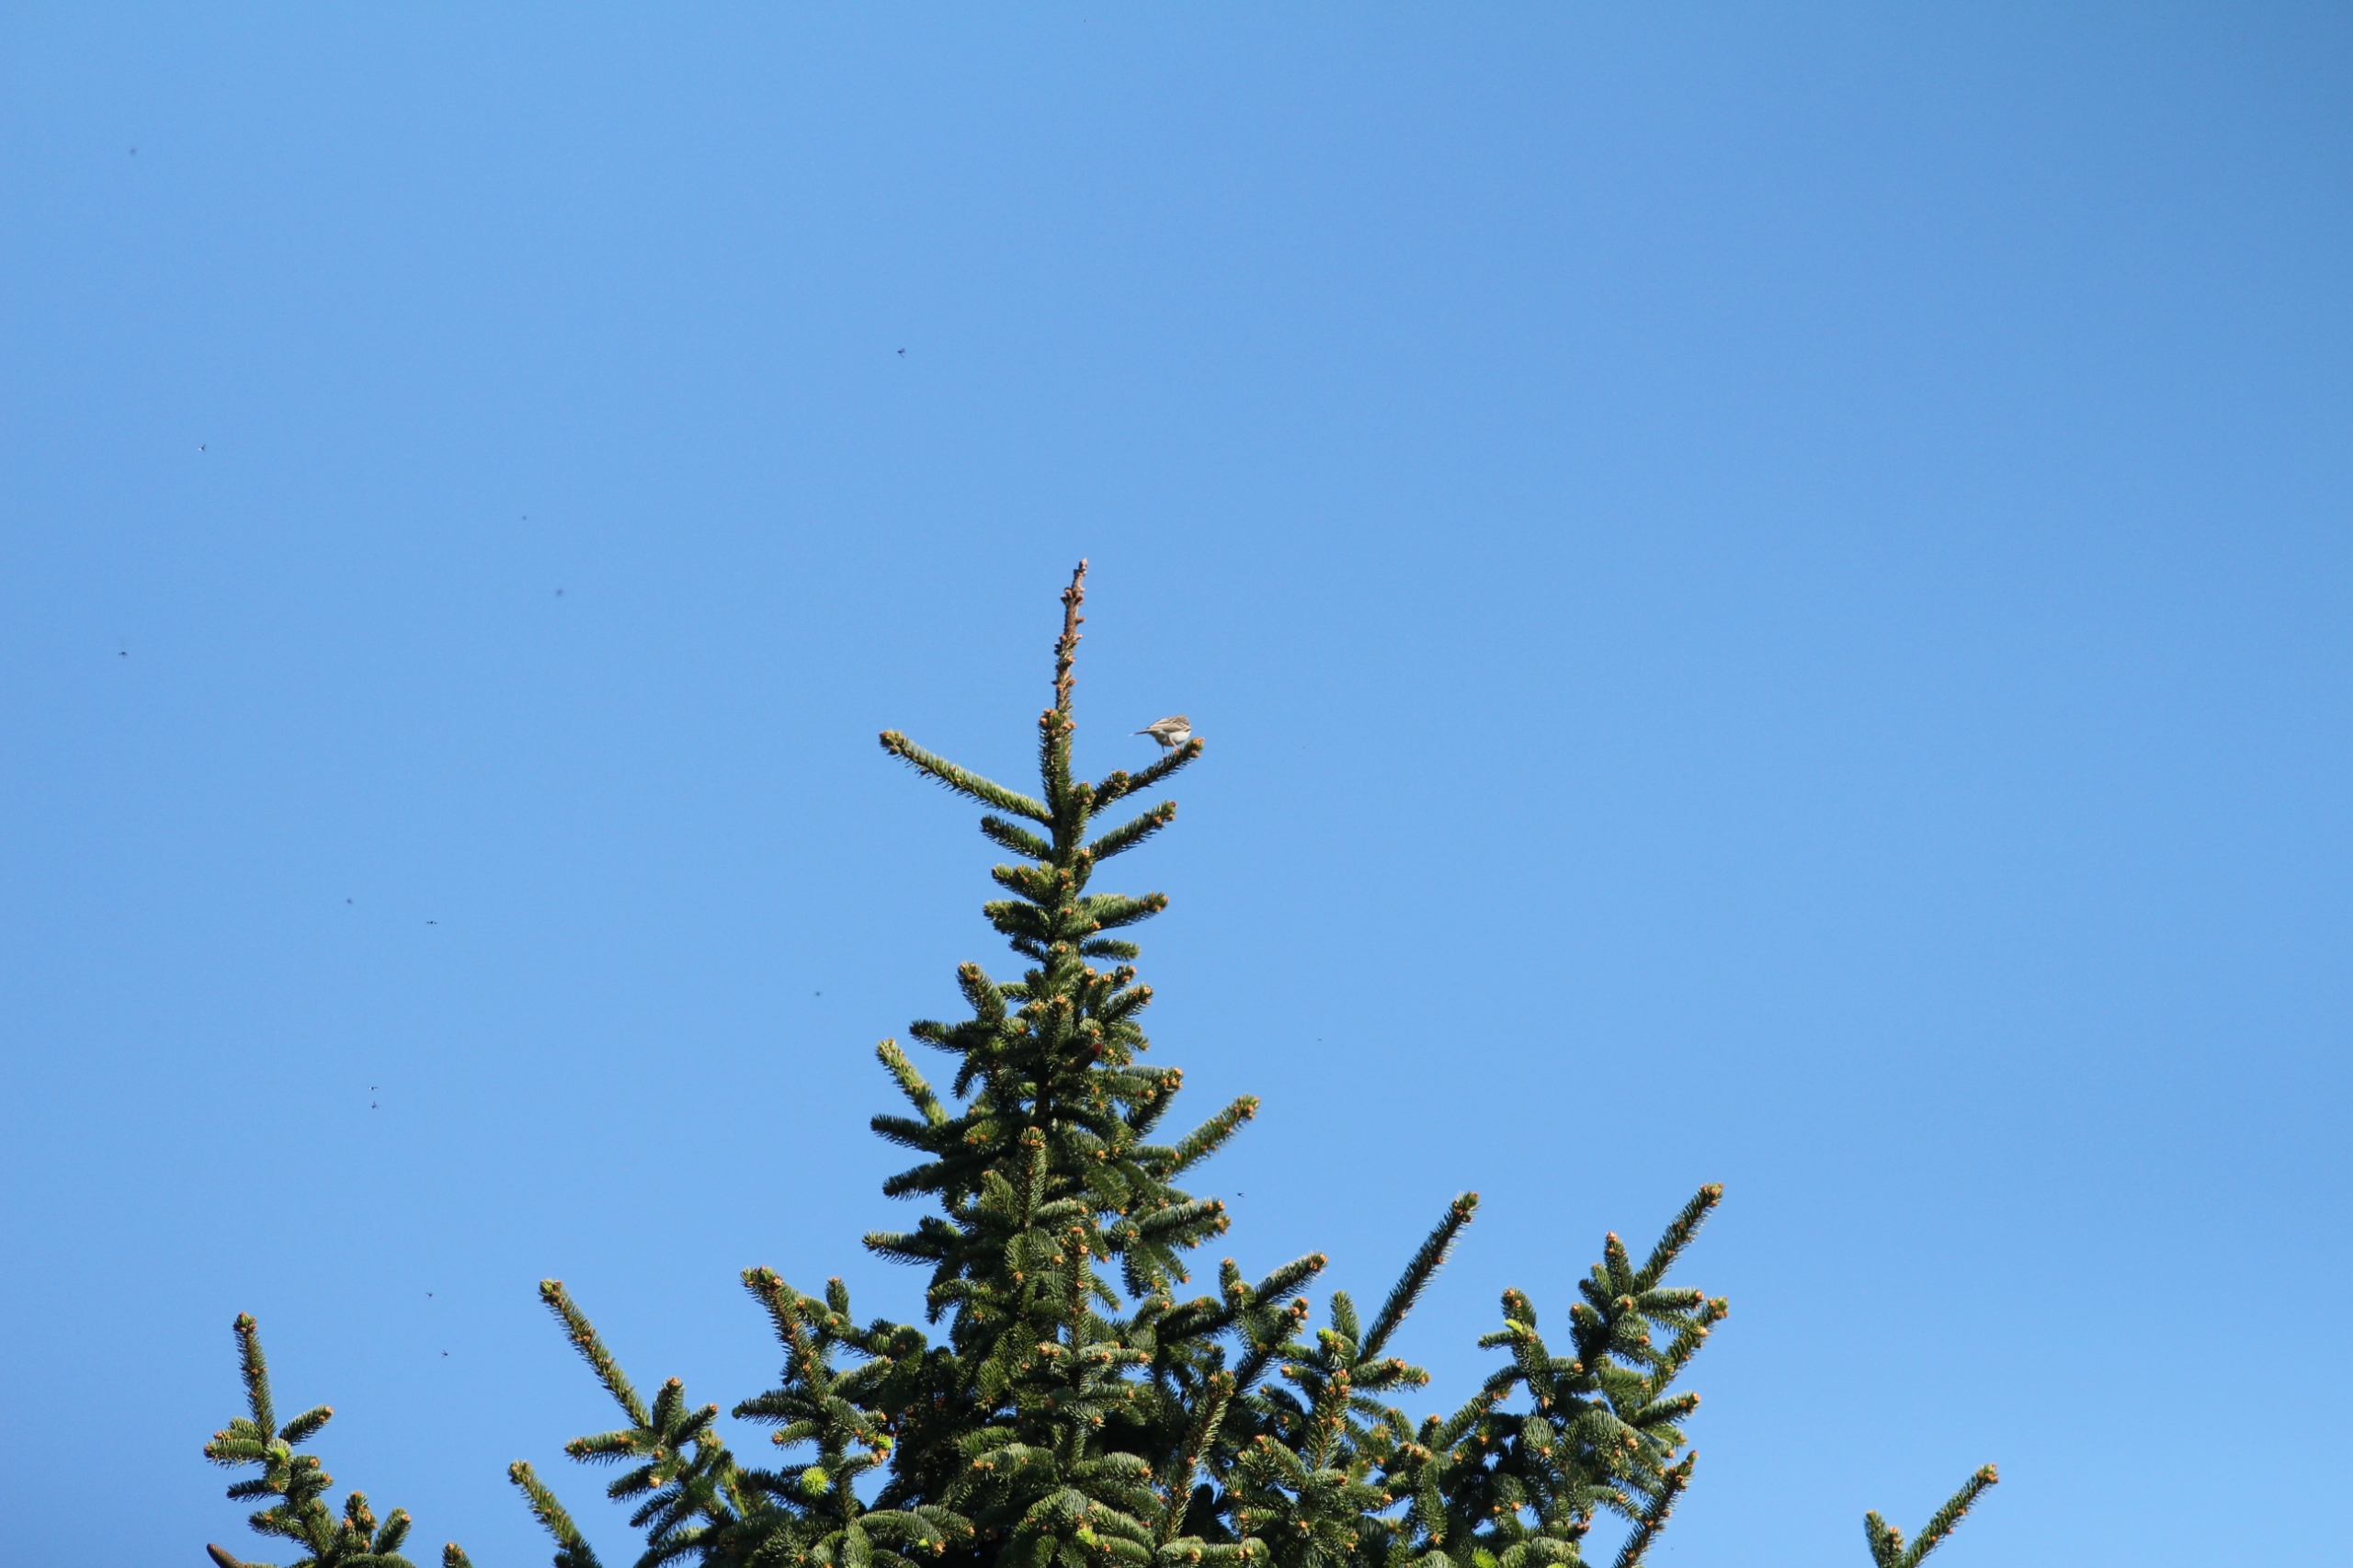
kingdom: Animalia
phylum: Chordata
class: Aves
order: Passeriformes
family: Motacillidae
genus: Anthus
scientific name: Anthus trivialis
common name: Skovpiber
